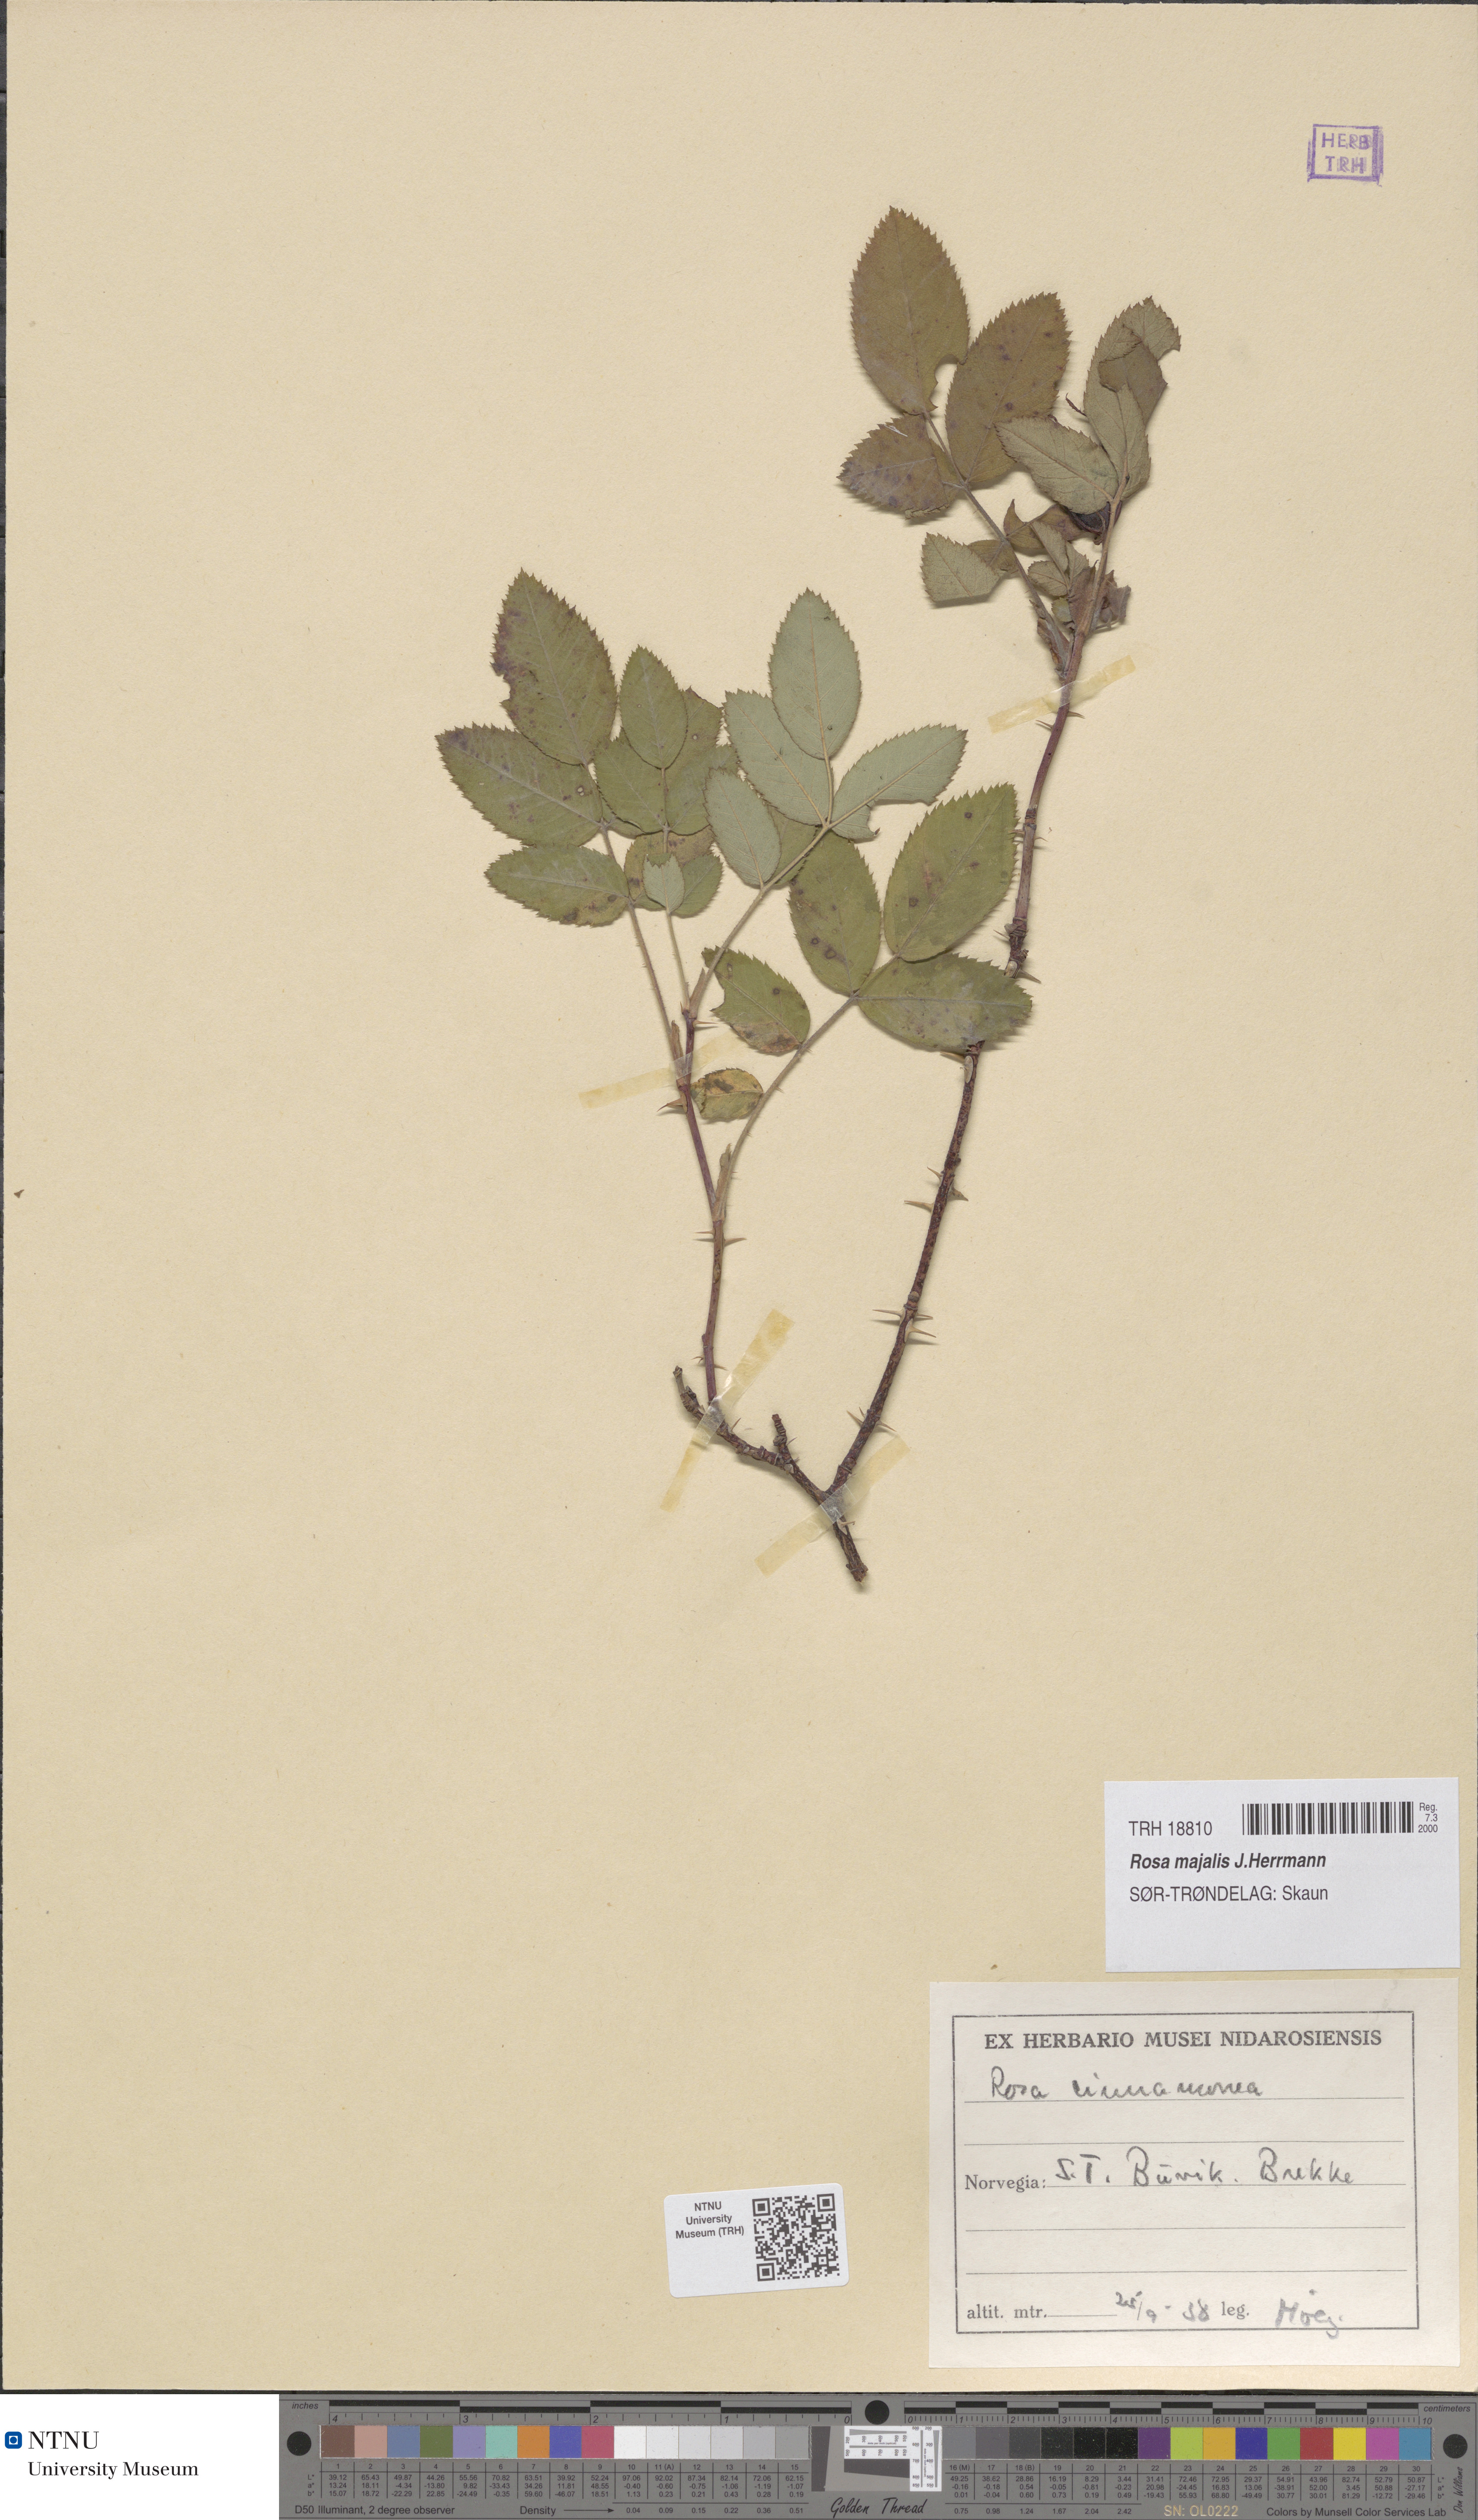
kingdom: Plantae
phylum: Tracheophyta
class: Magnoliopsida
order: Rosales
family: Rosaceae
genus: Rosa
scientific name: Rosa pendulina
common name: Alpine rose
